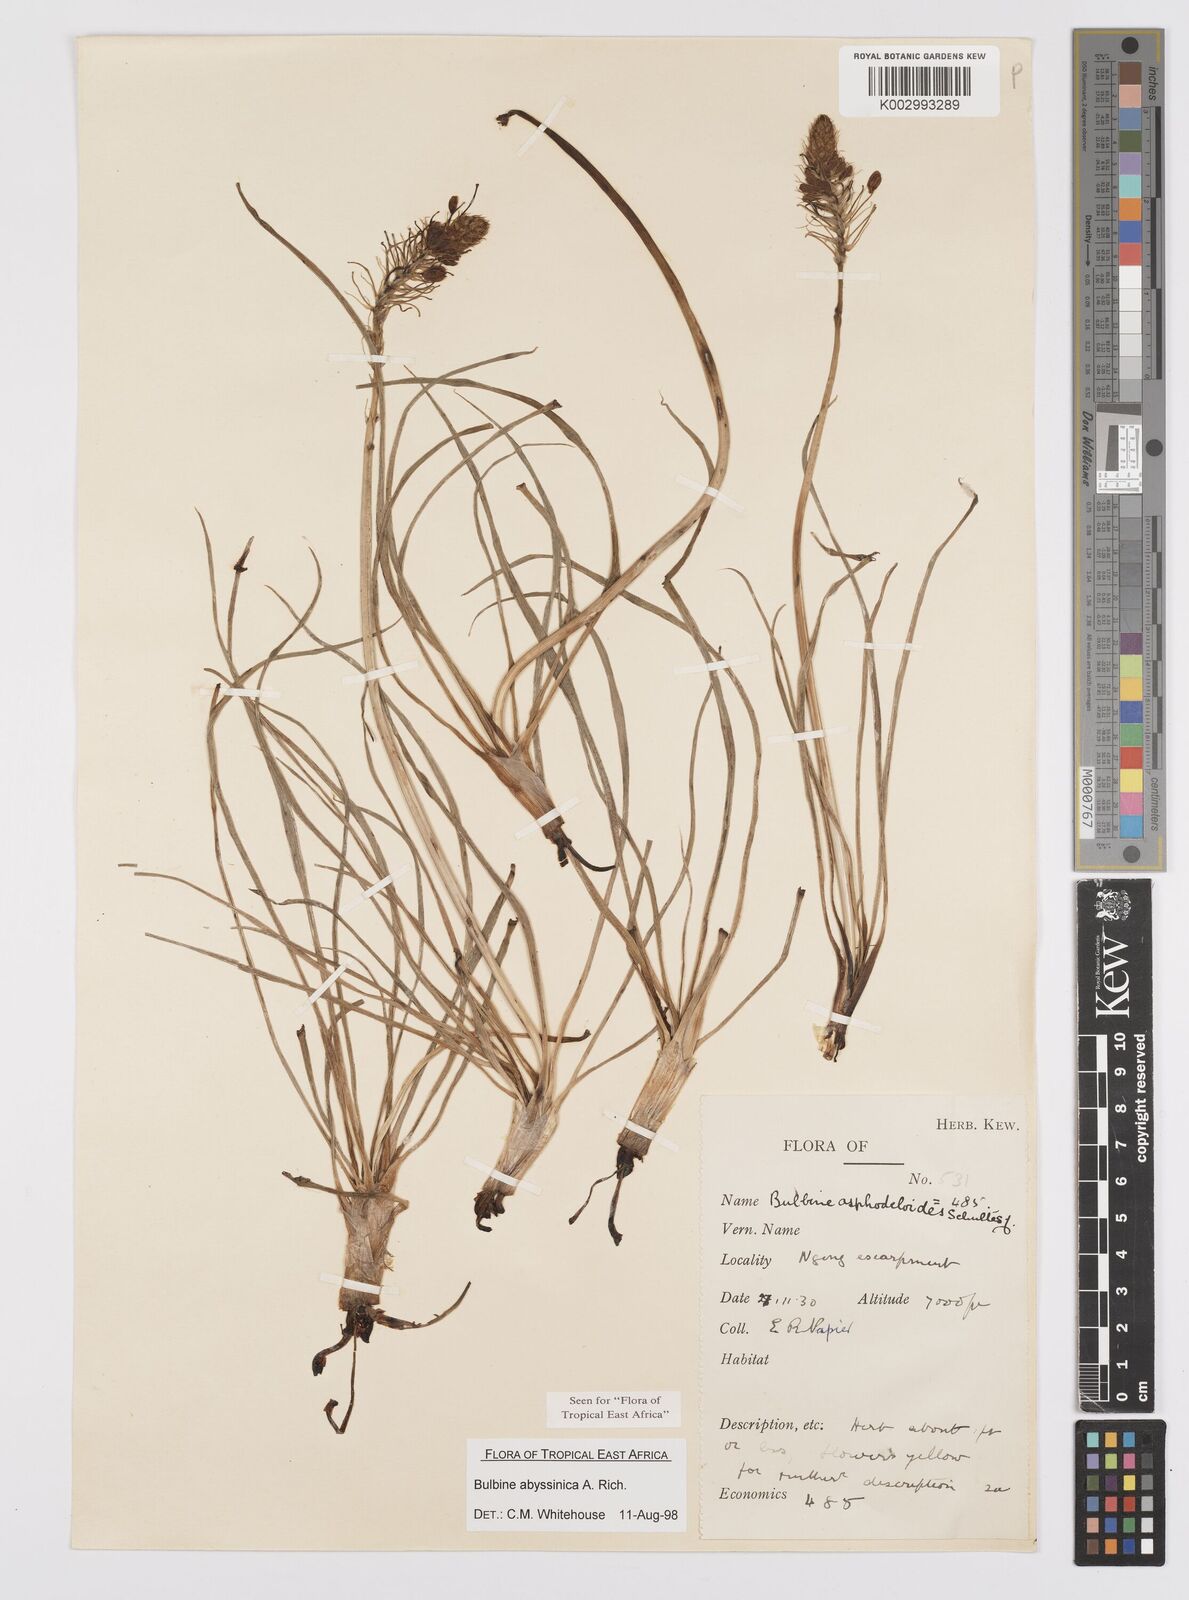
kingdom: Plantae
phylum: Tracheophyta
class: Liliopsida
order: Asparagales
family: Asphodelaceae
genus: Bulbine
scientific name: Bulbine abyssinica
